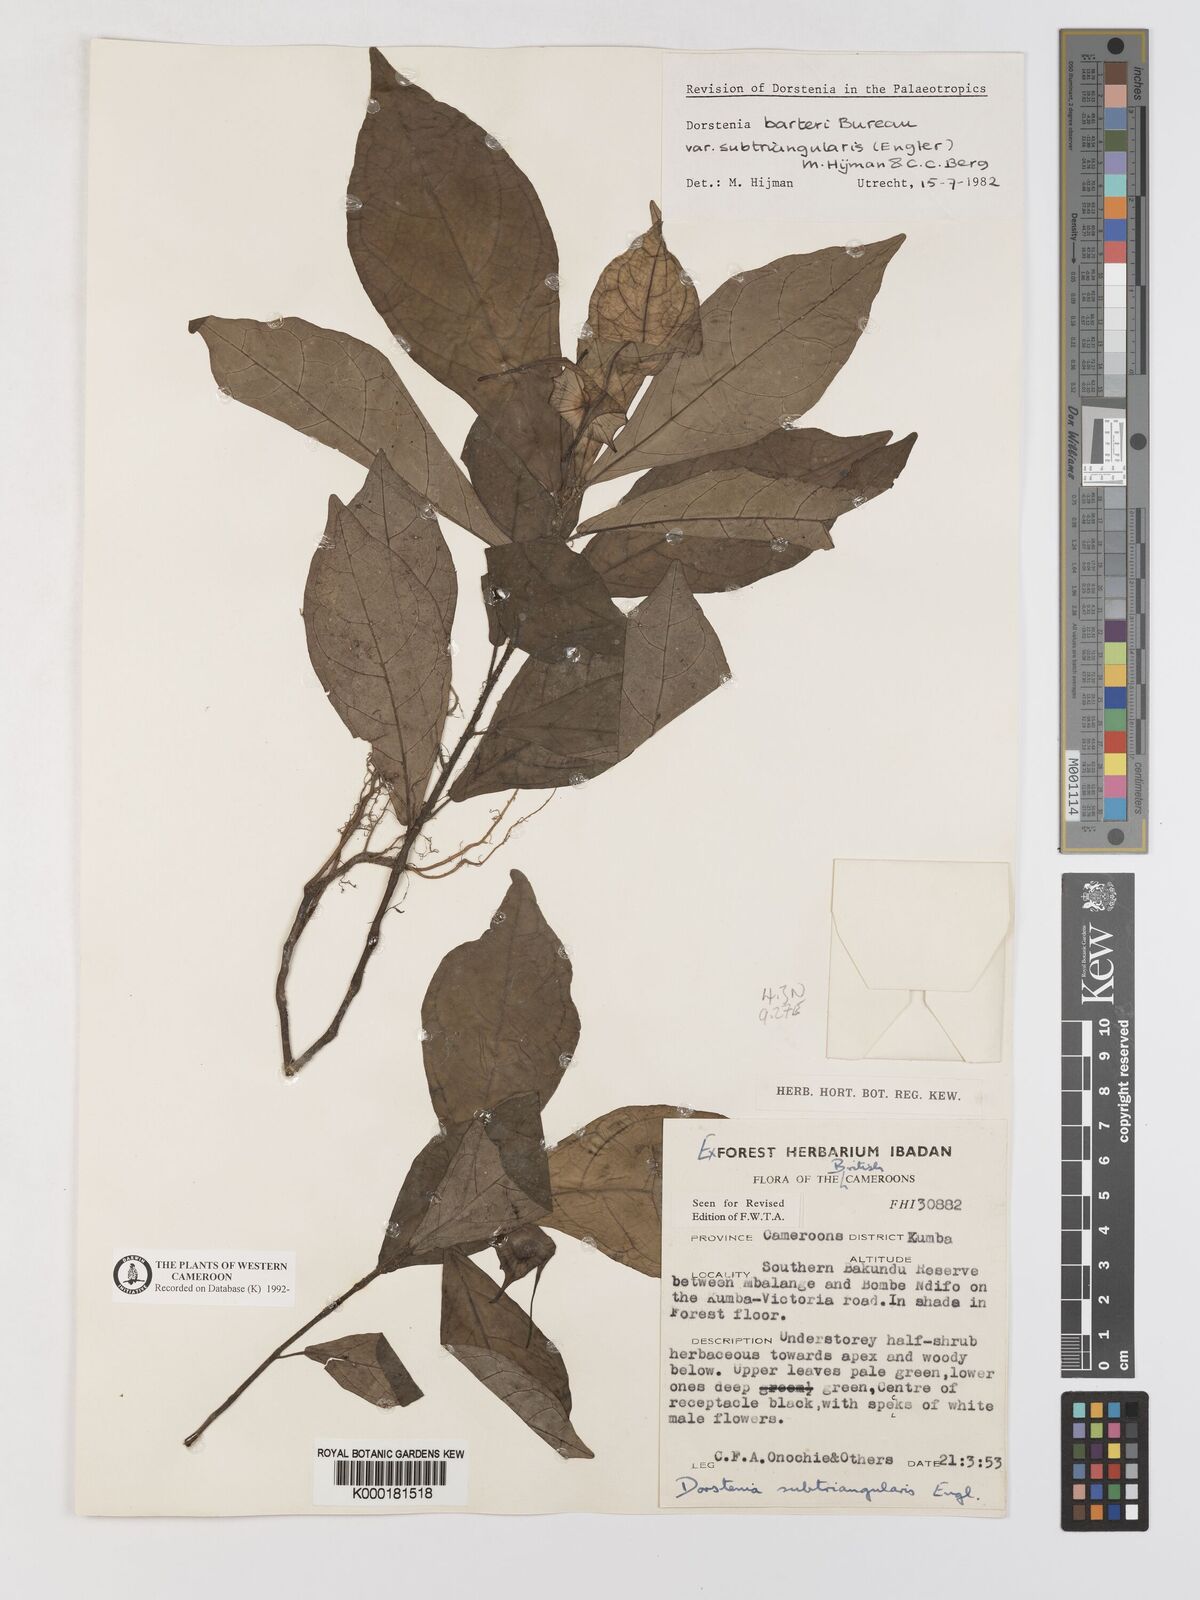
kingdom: Plantae
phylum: Tracheophyta
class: Magnoliopsida
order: Rosales
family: Moraceae
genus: Dorstenia
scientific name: Dorstenia barteri
